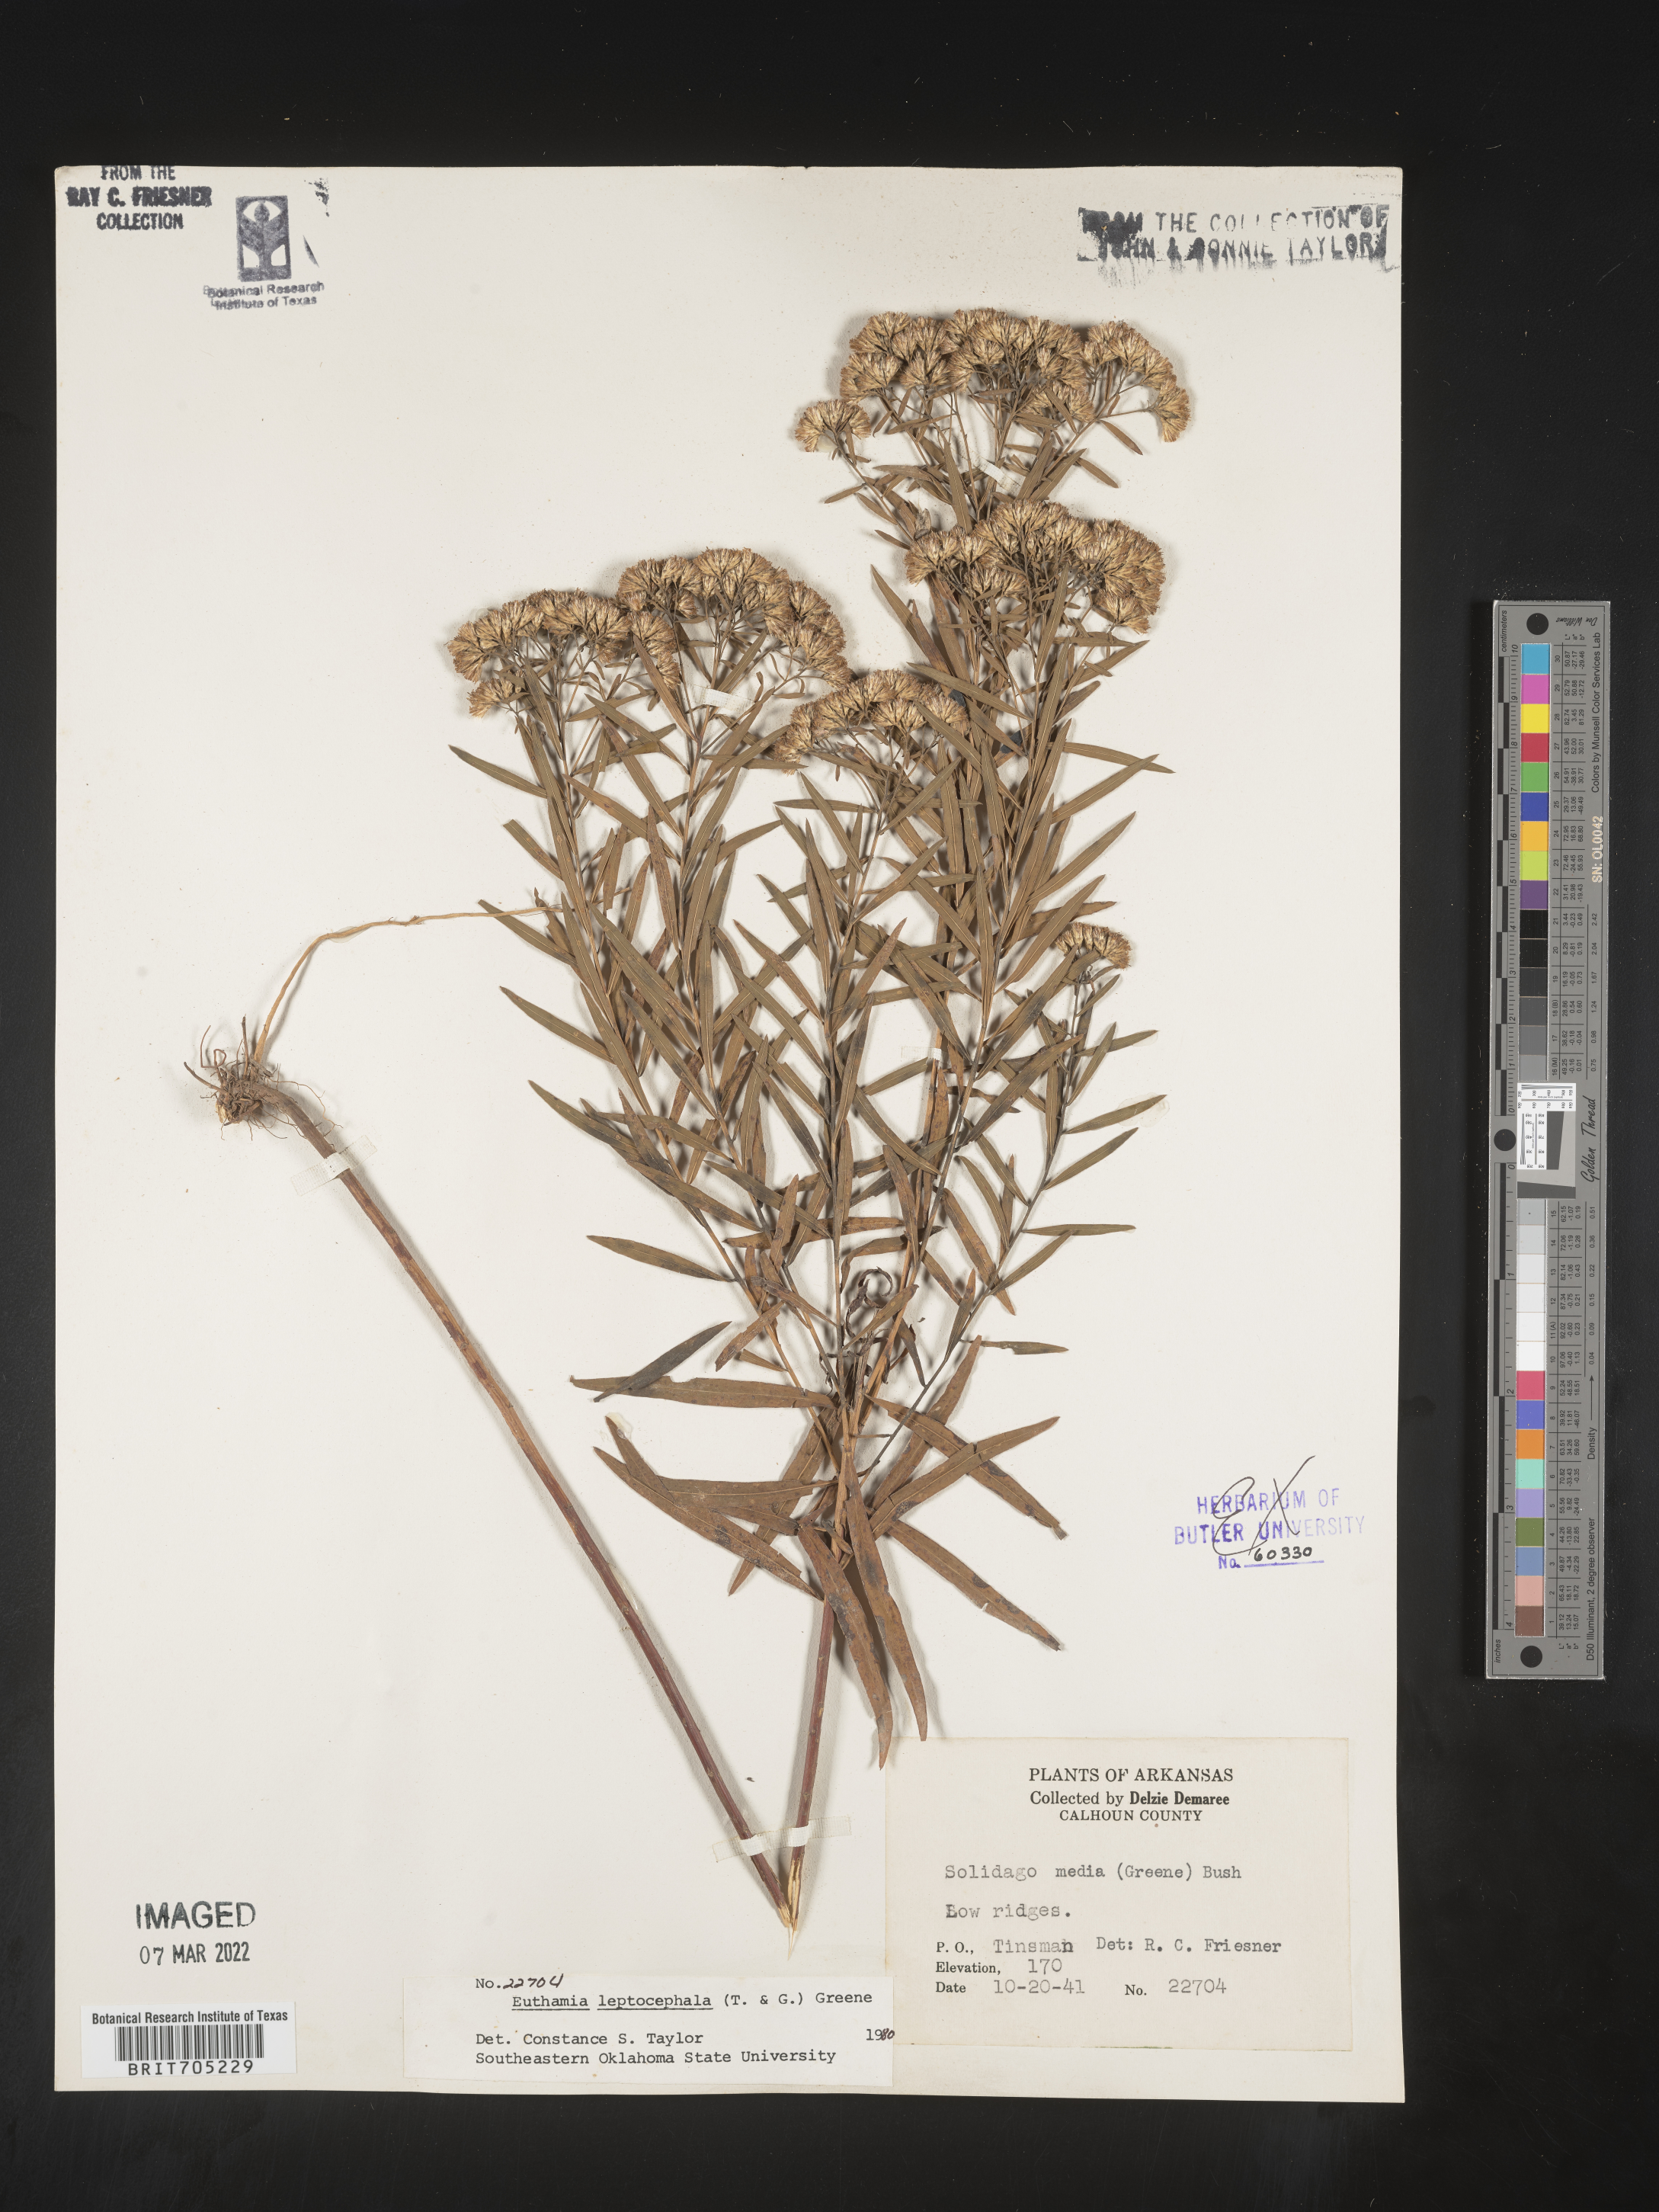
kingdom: Plantae
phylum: Tracheophyta
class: Magnoliopsida
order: Asterales
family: Asteraceae
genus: Euthamia
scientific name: Euthamia leptocephala
